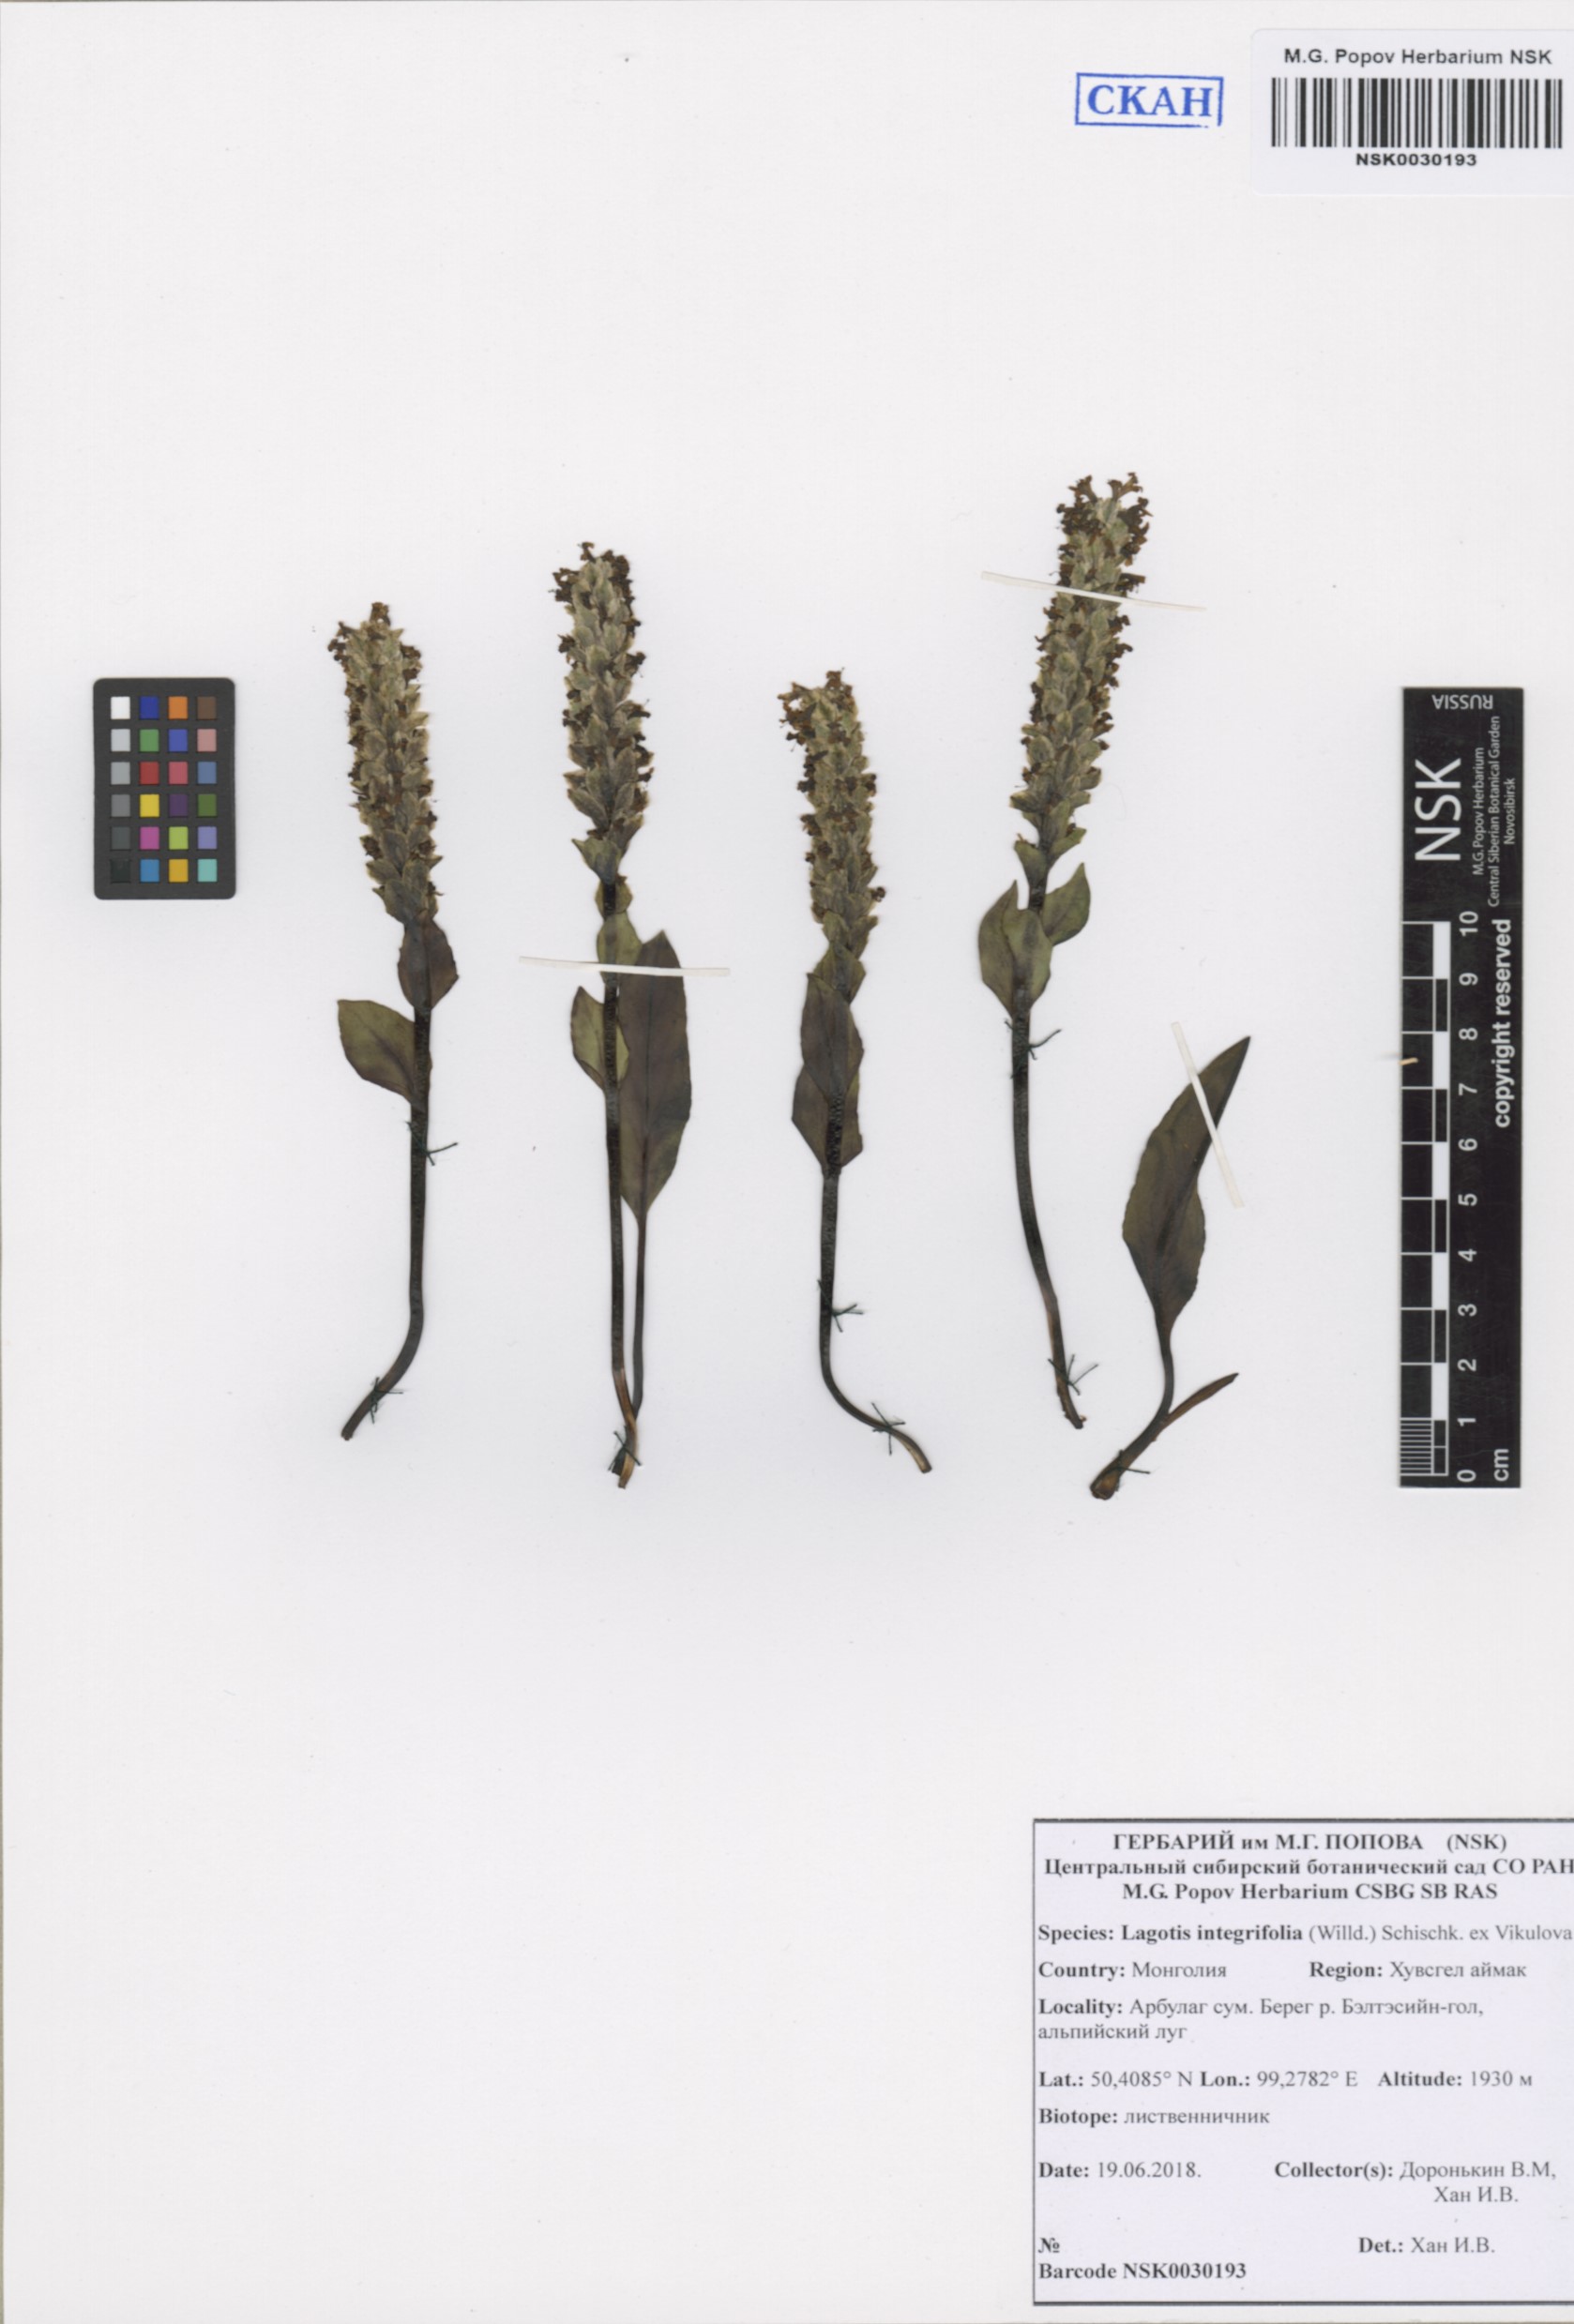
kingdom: Plantae
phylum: Tracheophyta
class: Magnoliopsida
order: Lamiales
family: Plantaginaceae
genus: Lagotis
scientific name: Lagotis integrifolia
